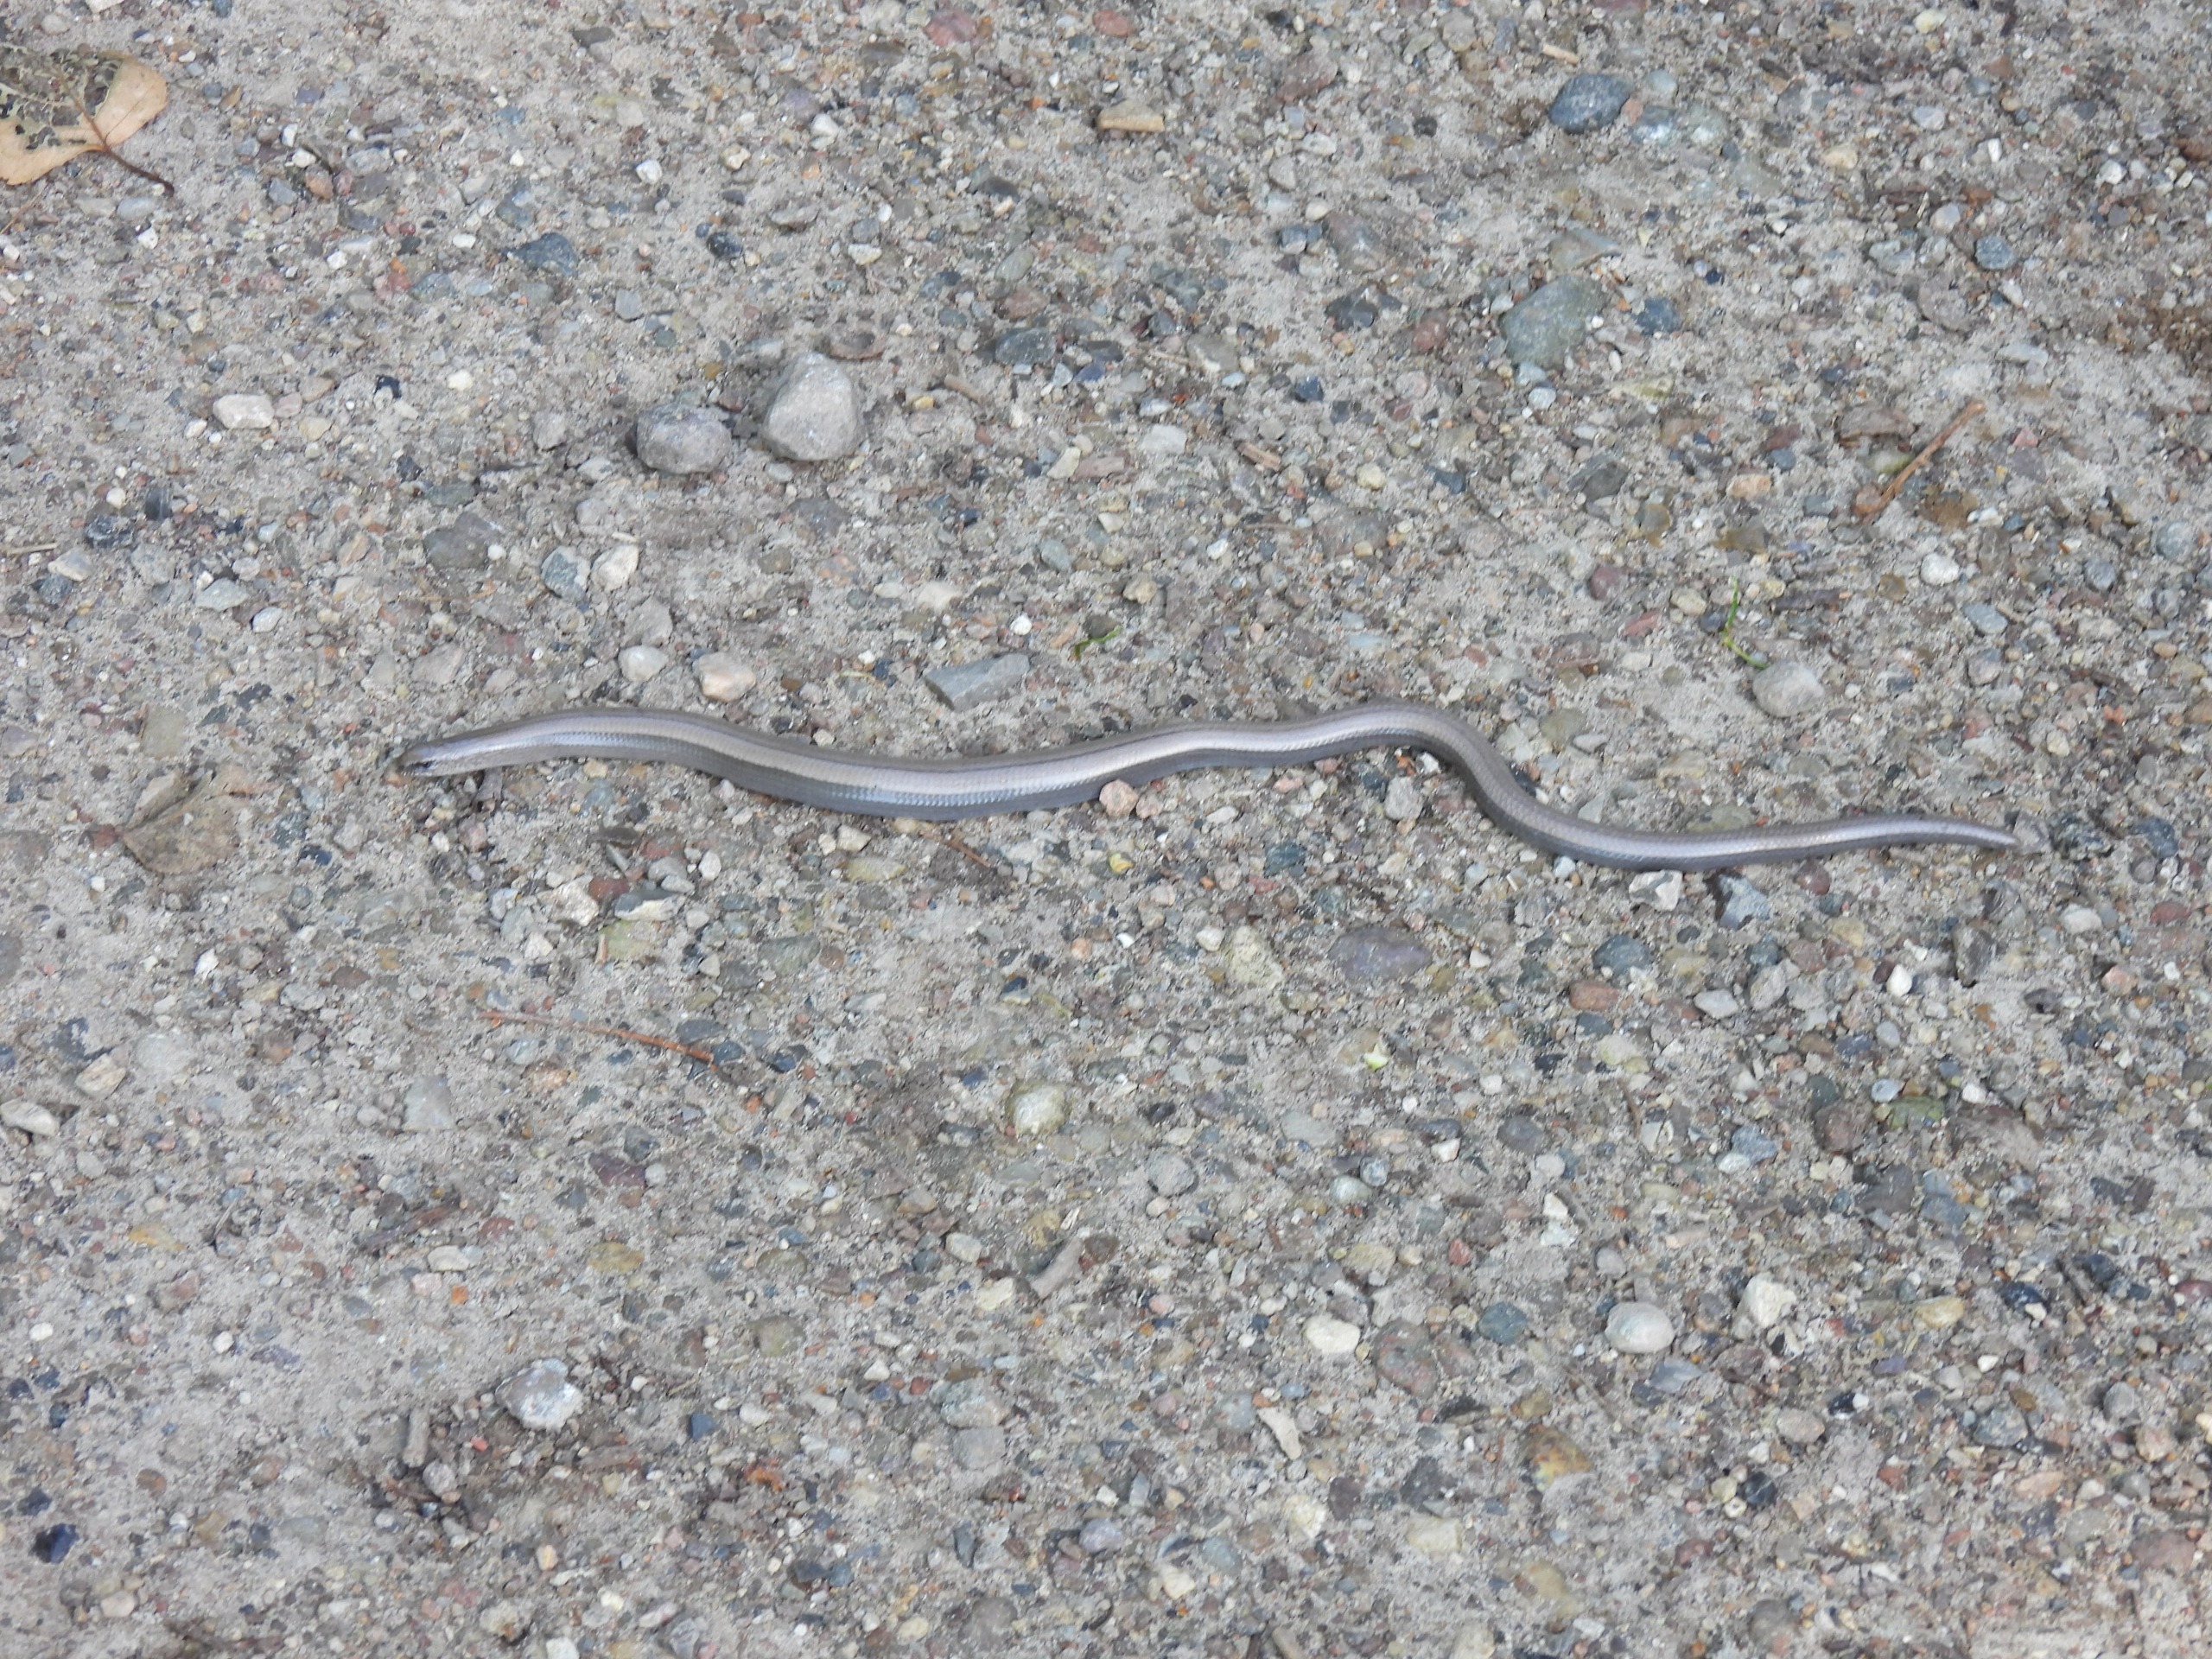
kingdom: Animalia
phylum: Chordata
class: Squamata
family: Anguidae
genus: Anguis
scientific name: Anguis fragilis
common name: Stålorm
